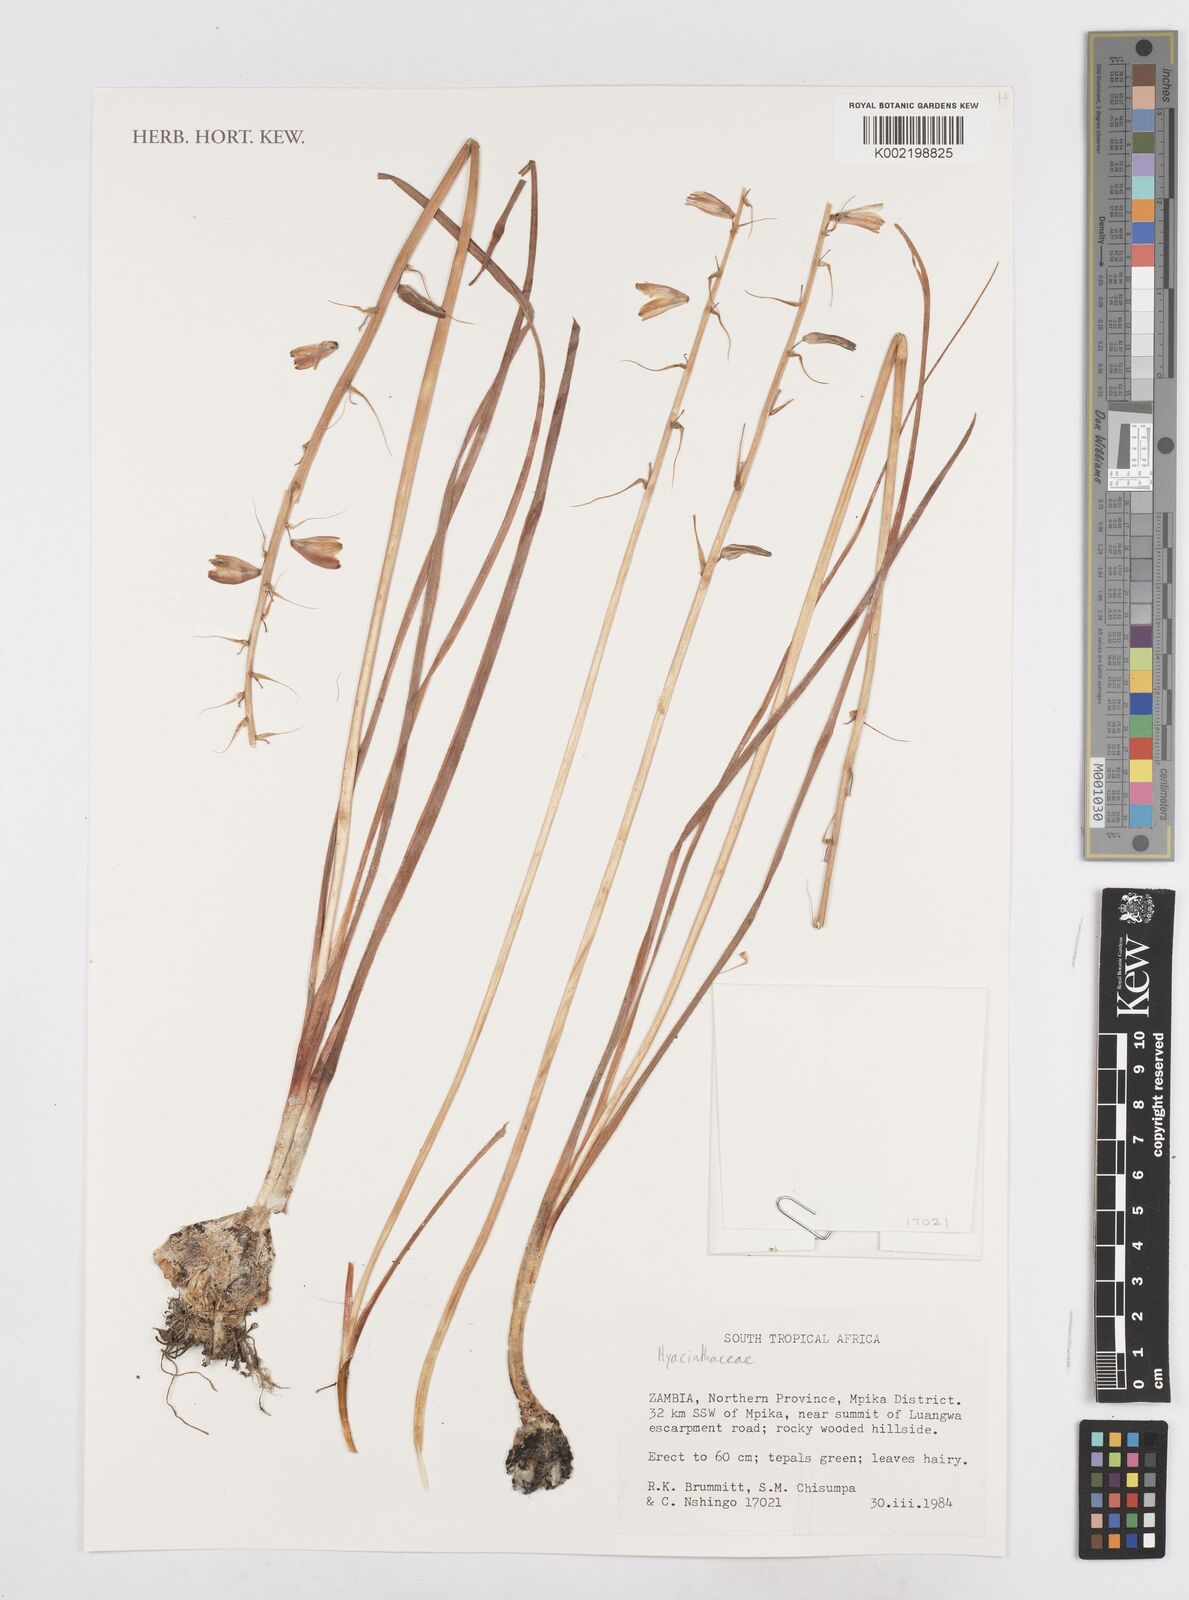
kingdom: Plantae
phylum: Tracheophyta
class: Liliopsida
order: Asparagales
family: Asparagaceae
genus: Drimia
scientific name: Drimia
